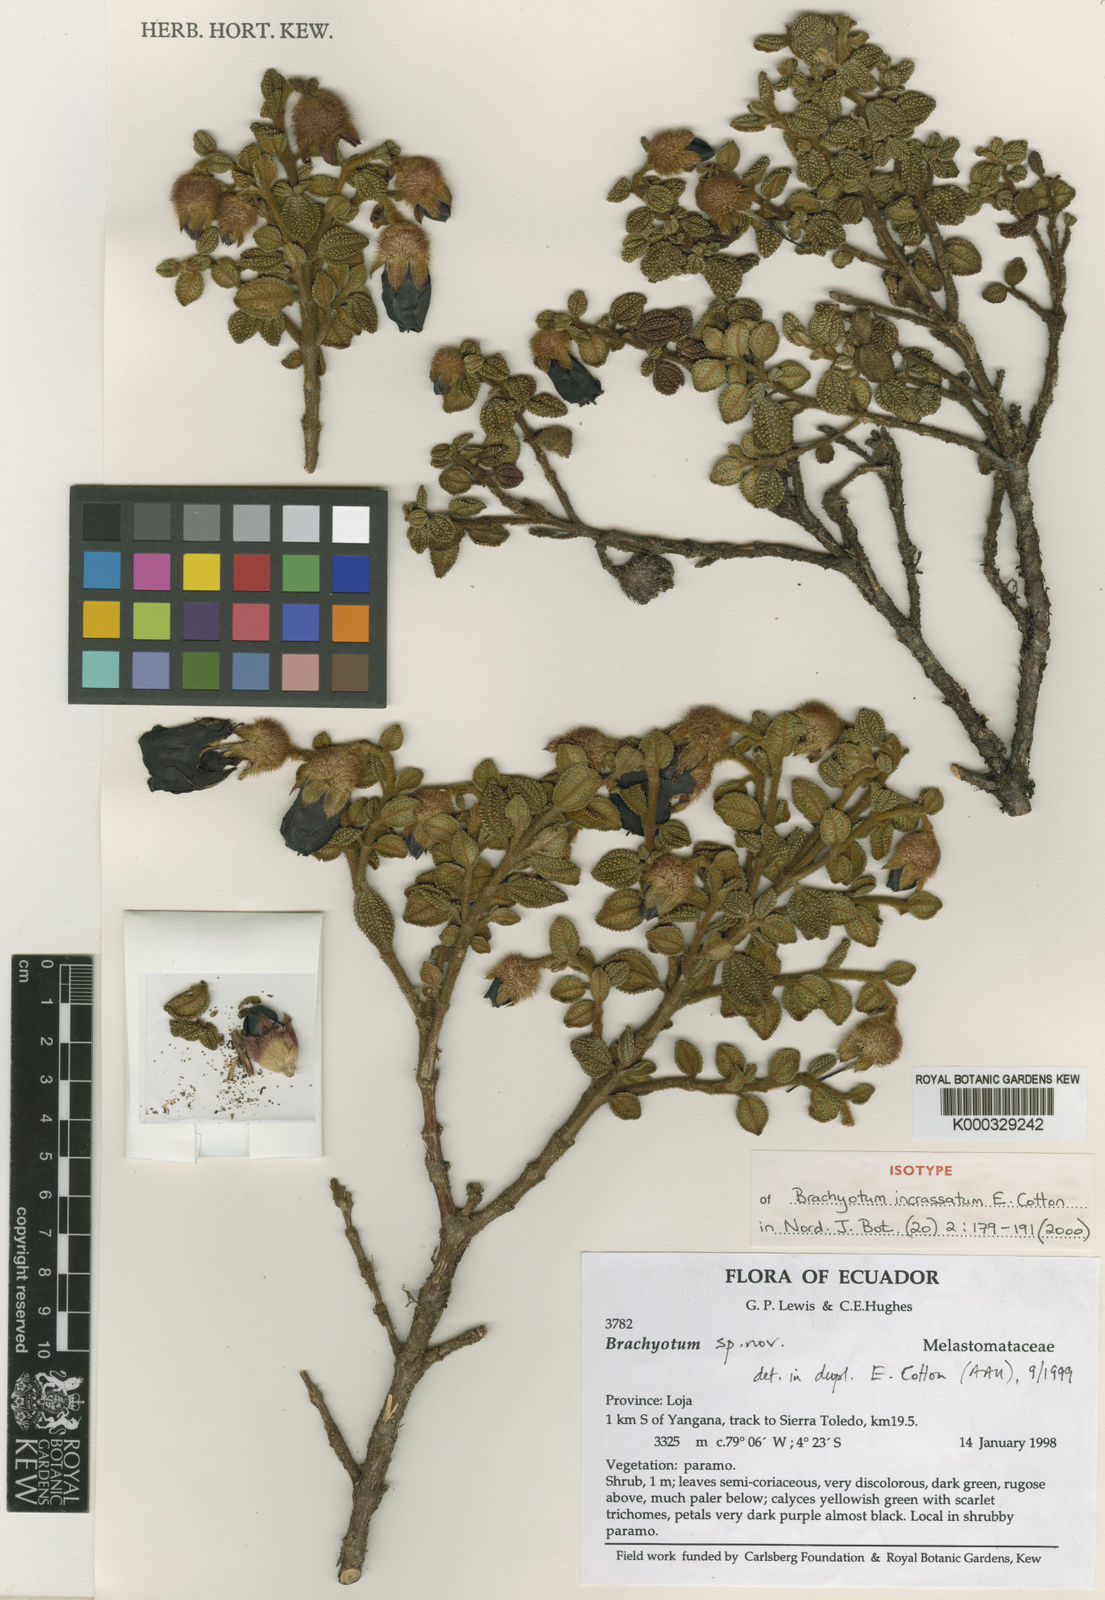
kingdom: Plantae
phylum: Tracheophyta
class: Magnoliopsida
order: Myrtales
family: Melastomataceae
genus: Brachyotum
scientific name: Brachyotum incrassatum
